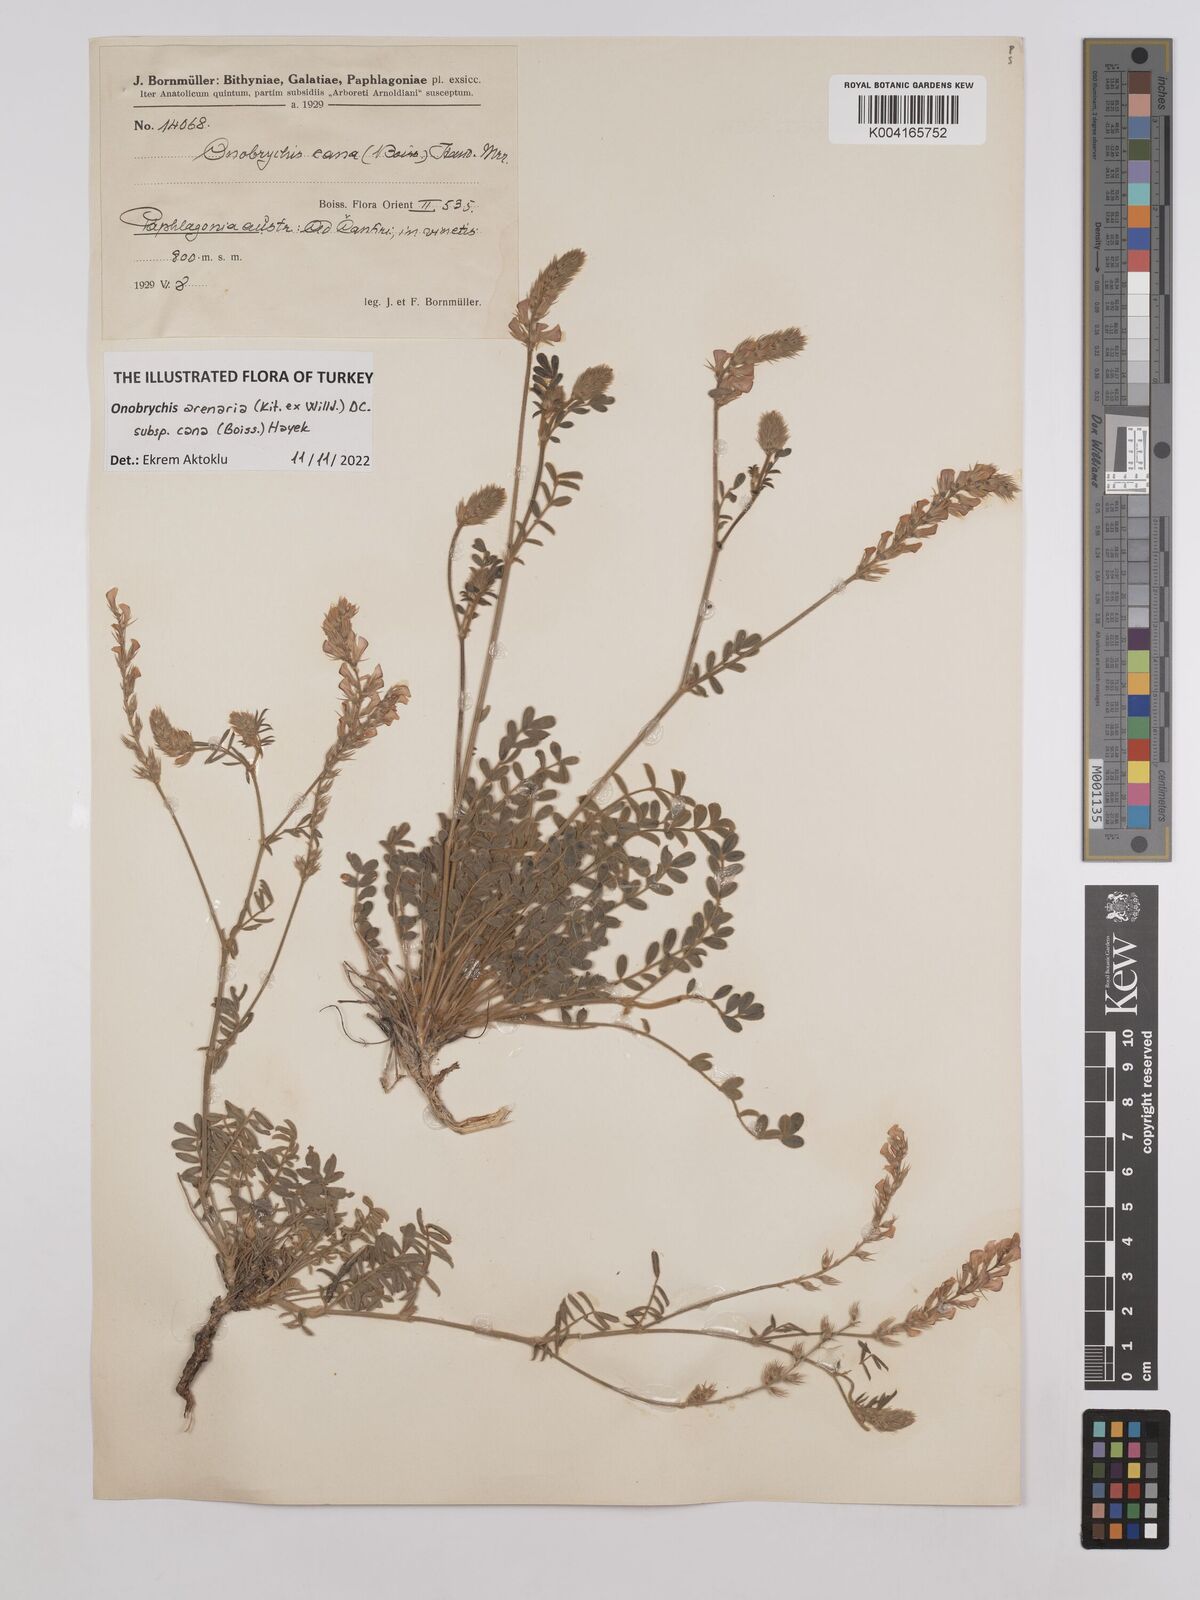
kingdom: Plantae
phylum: Tracheophyta
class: Magnoliopsida
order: Fabales
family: Fabaceae
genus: Onobrychis
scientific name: Onobrychis arenaria
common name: Sand esparcet
